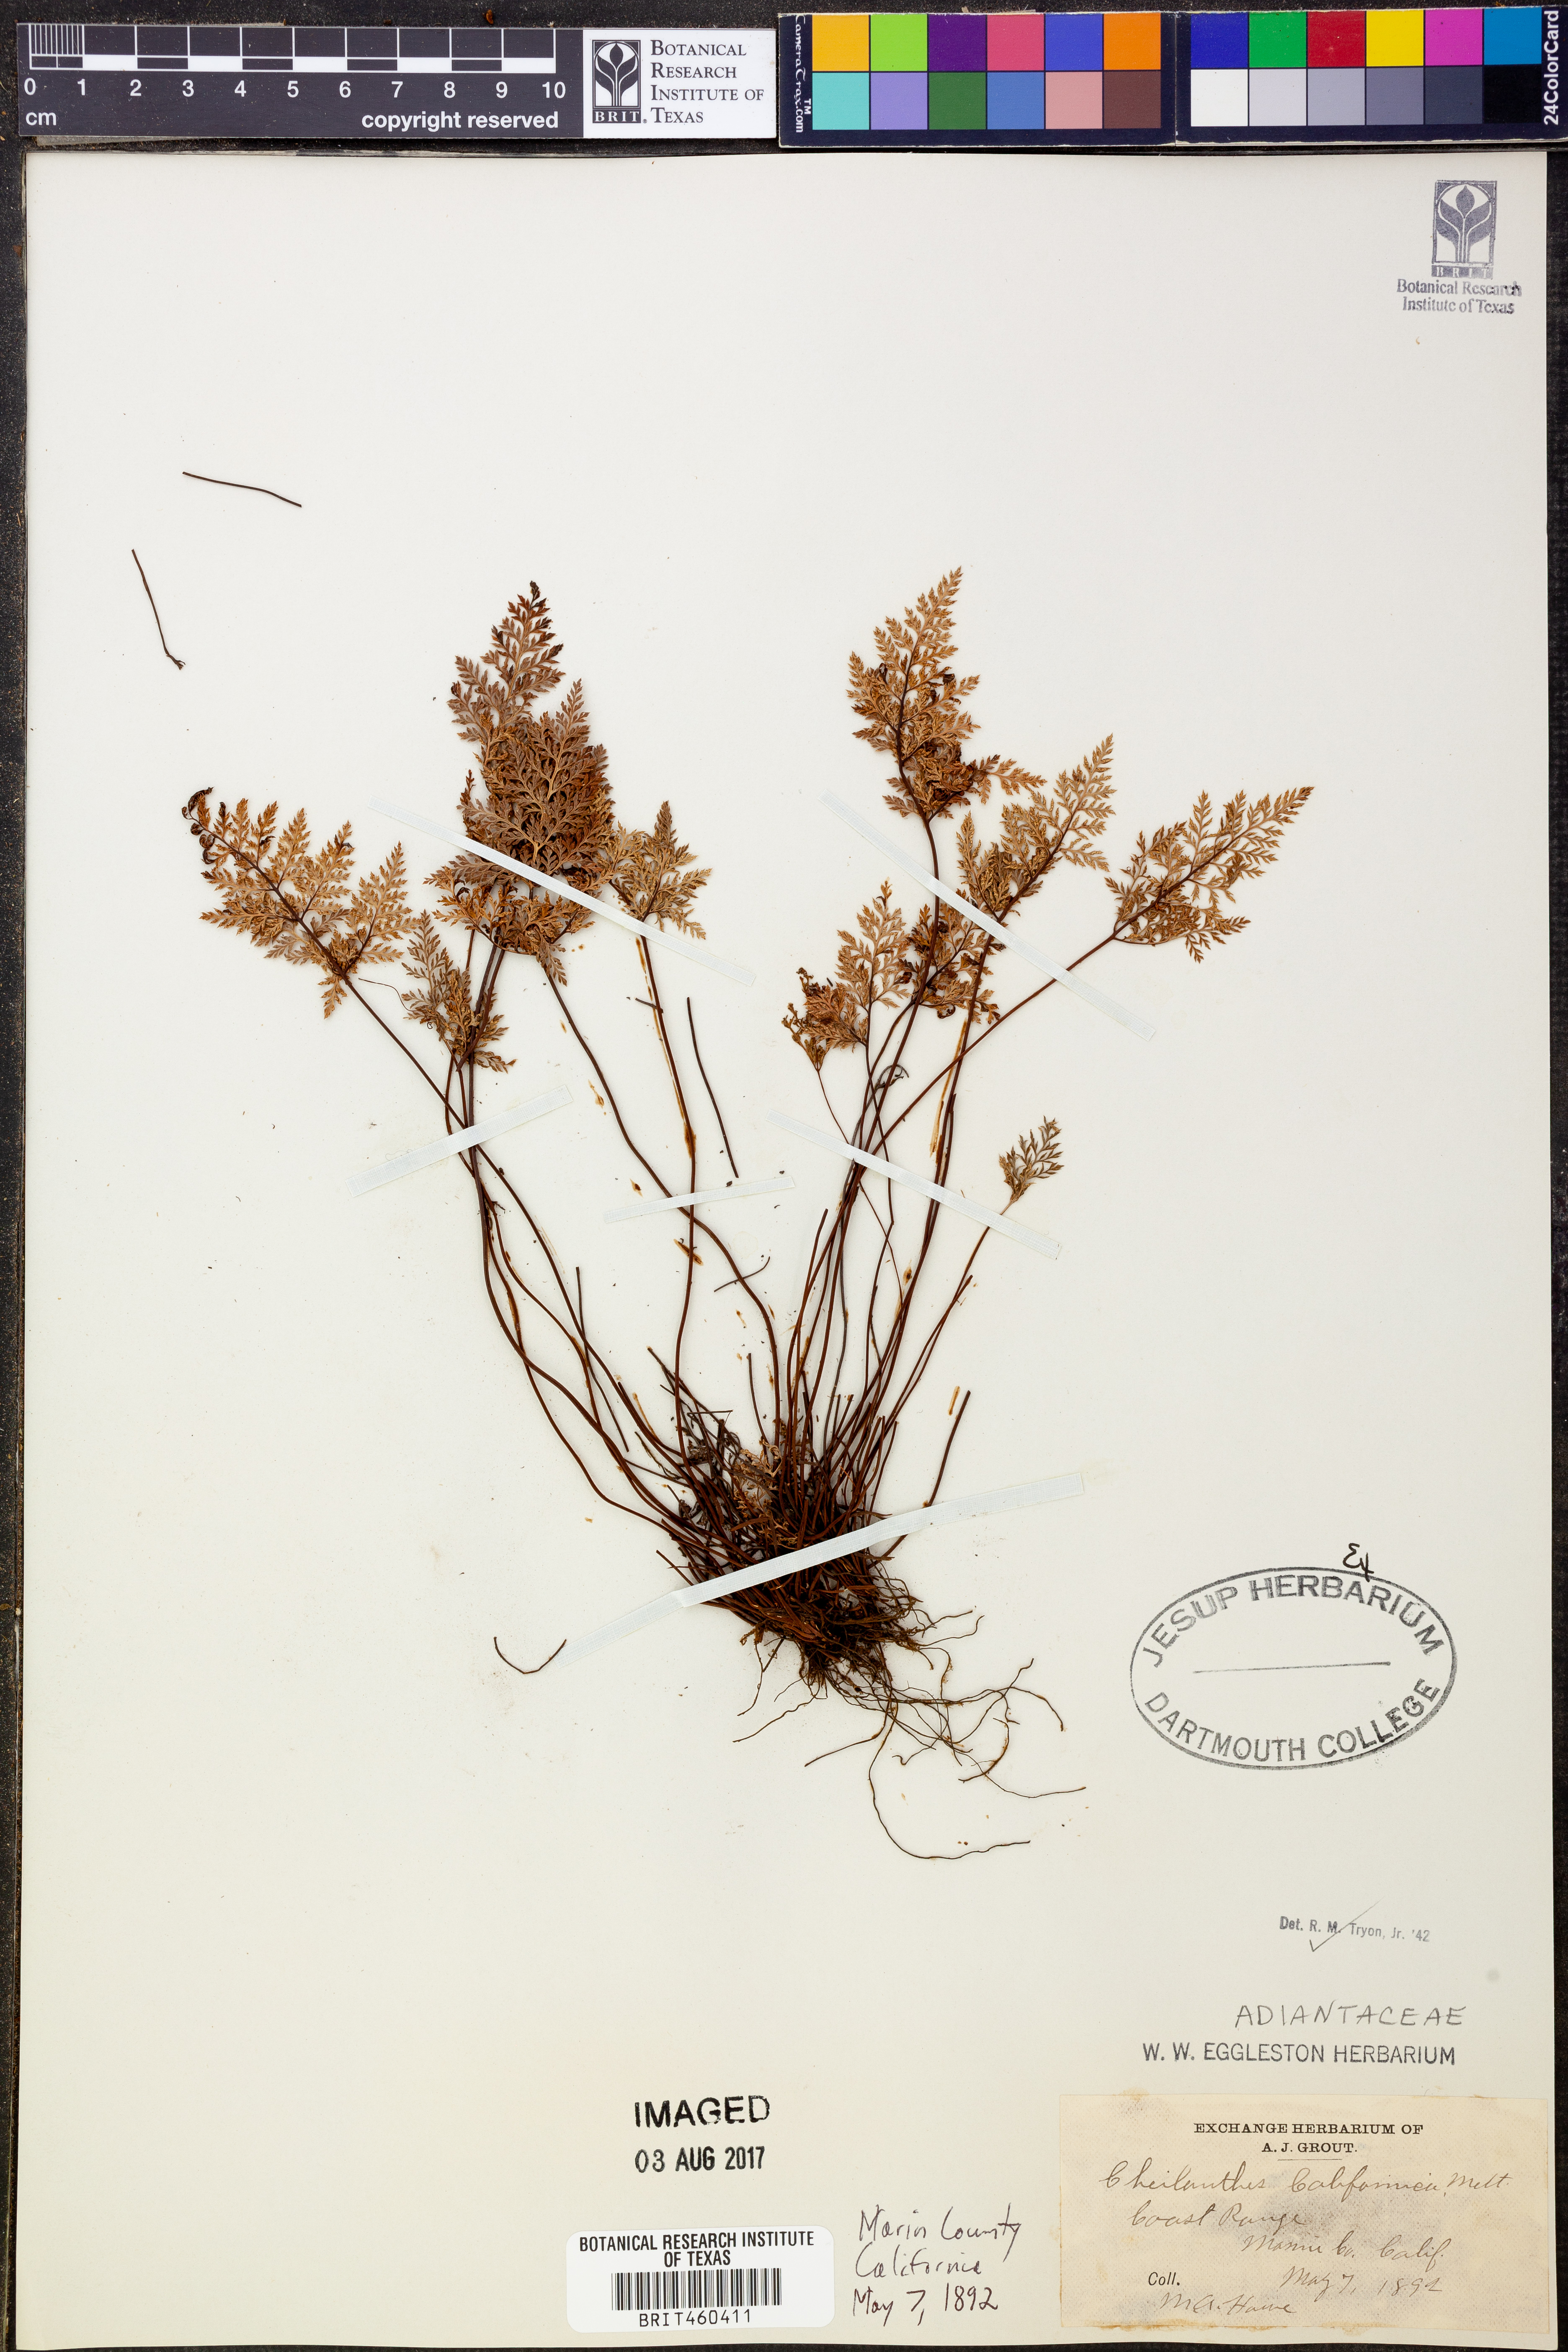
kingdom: Plantae
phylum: Tracheophyta
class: Polypodiopsida
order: Polypodiales
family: Pteridaceae
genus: Aspidotis
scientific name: Aspidotis californica
